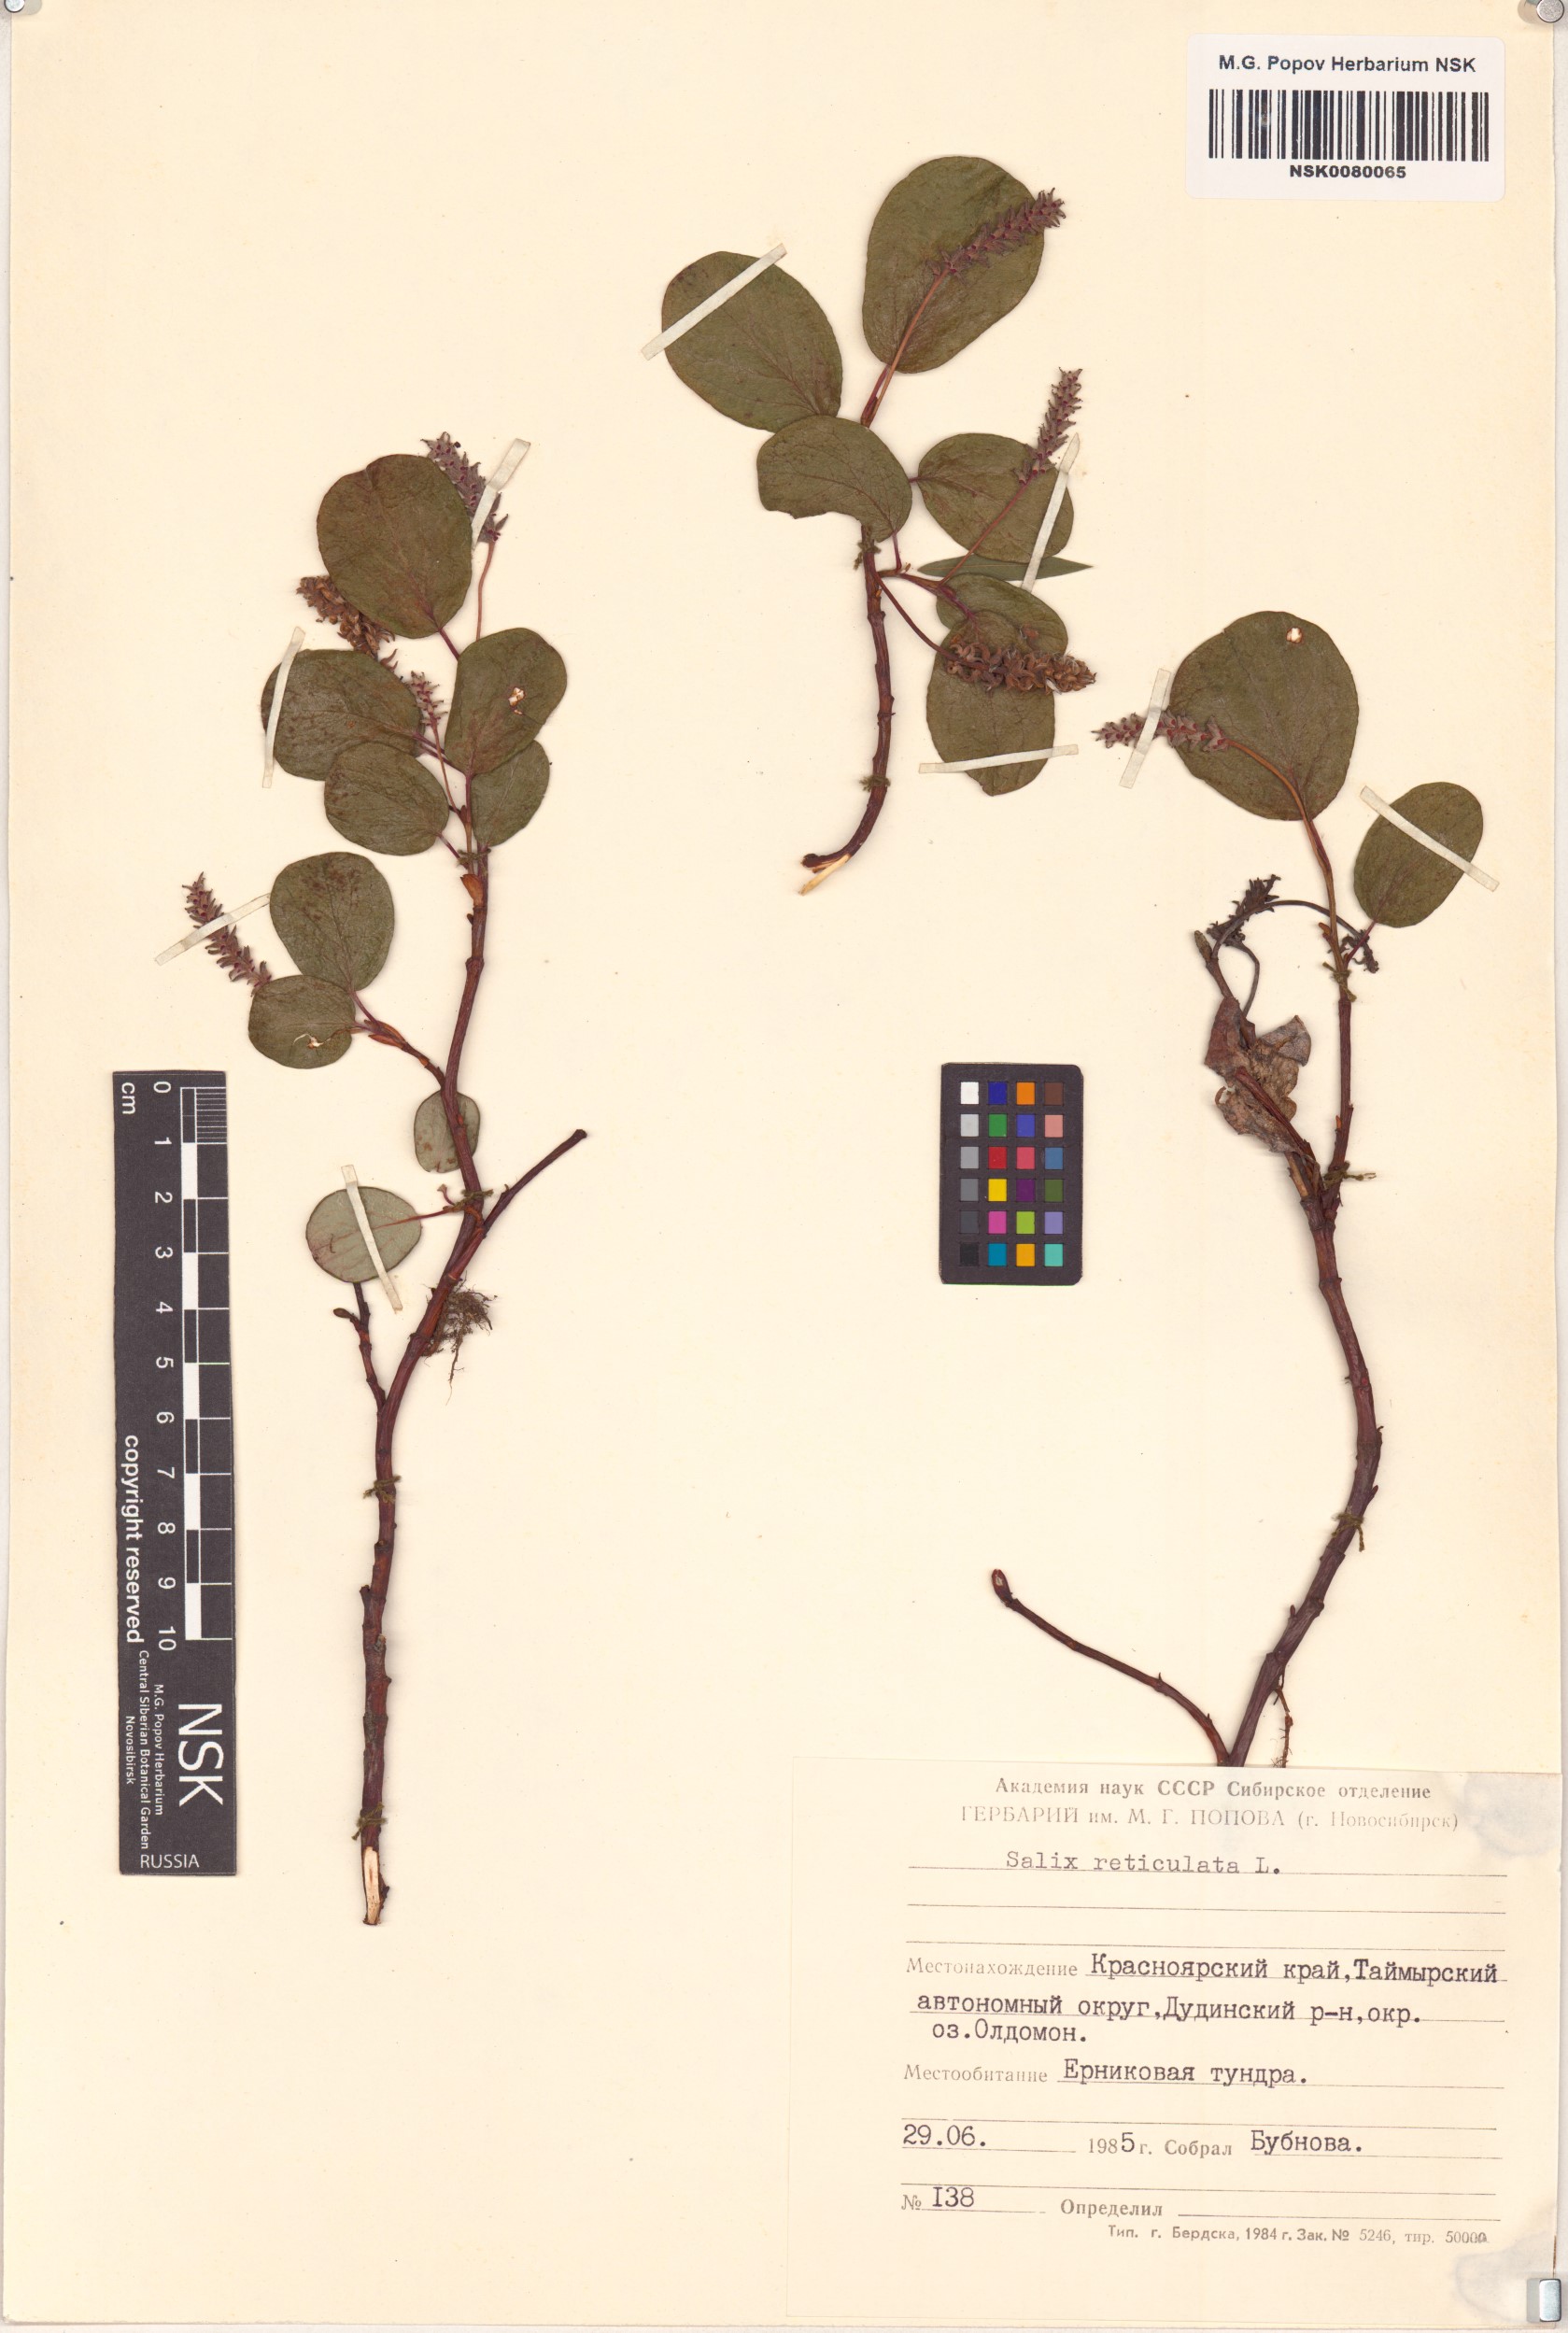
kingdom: Plantae
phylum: Tracheophyta
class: Magnoliopsida
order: Malpighiales
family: Salicaceae
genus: Salix
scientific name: Salix reticulata
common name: Net-leaved willow
